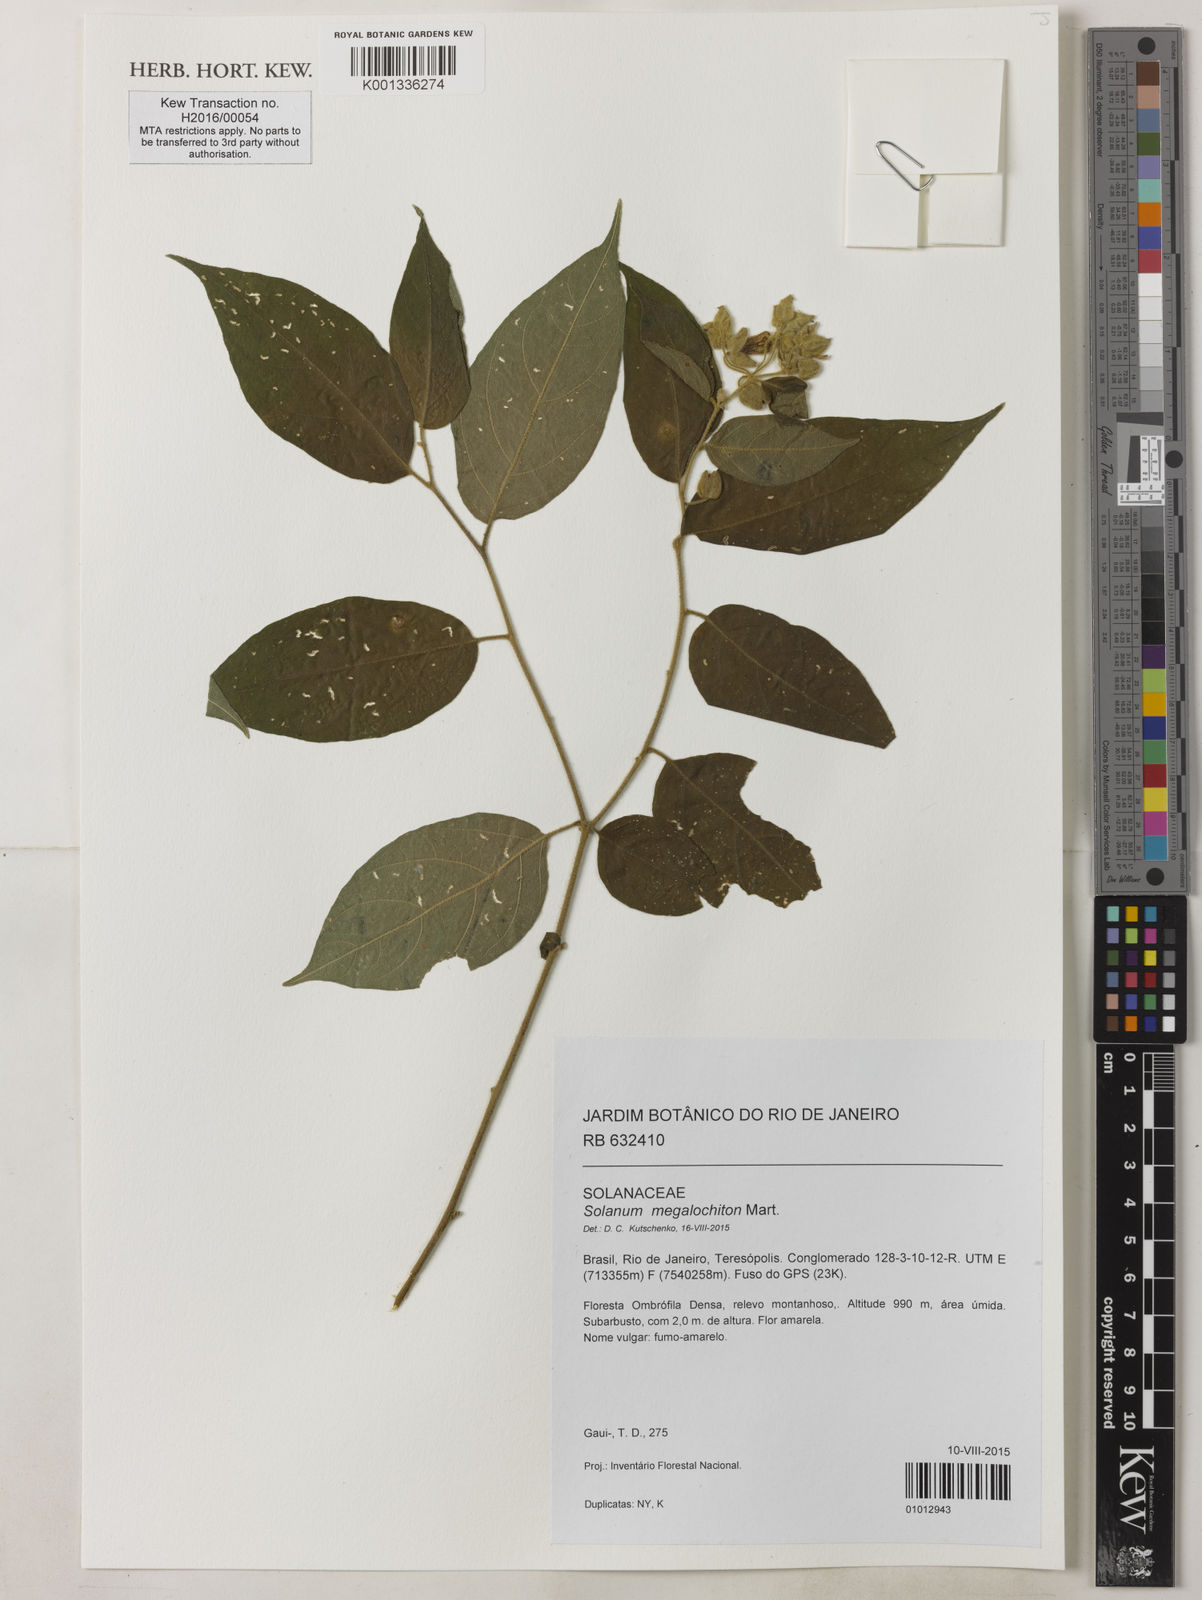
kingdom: Plantae
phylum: Tracheophyta
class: Magnoliopsida
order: Solanales
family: Solanaceae
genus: Solanum
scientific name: Solanum didymum
